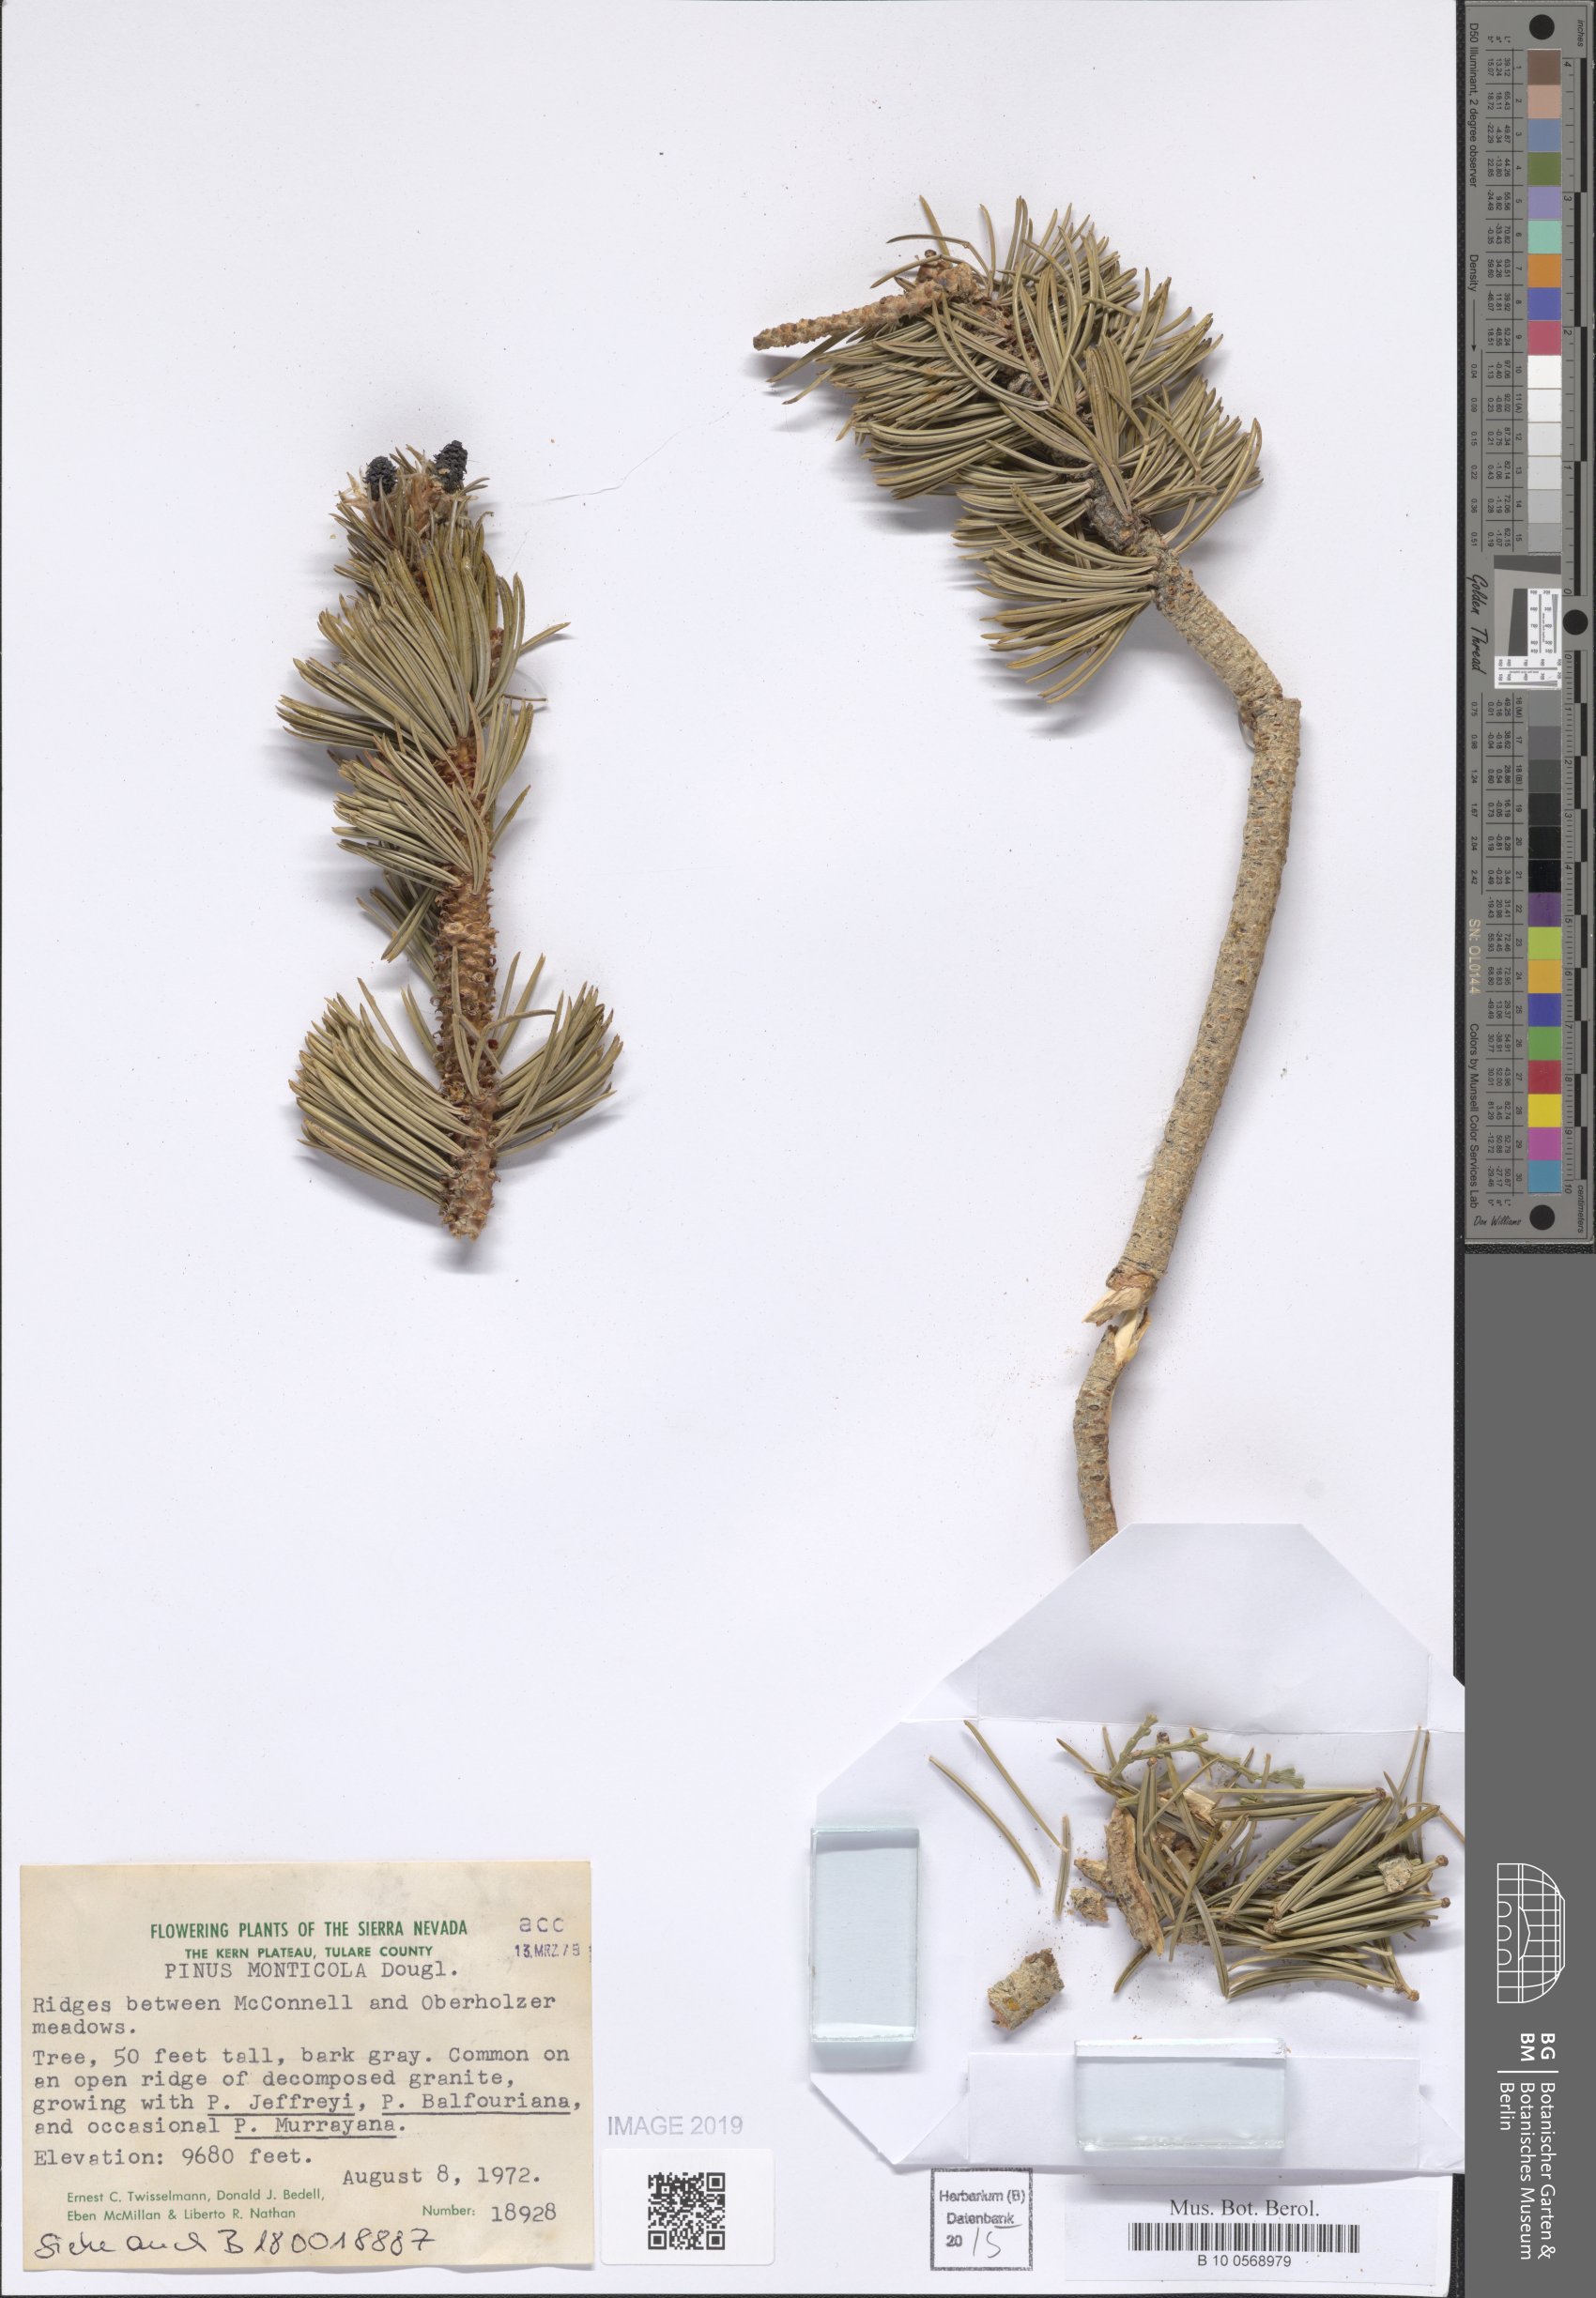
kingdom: Plantae
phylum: Tracheophyta
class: Pinopsida
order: Pinales
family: Pinaceae
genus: Pinus
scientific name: Pinus monticola
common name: Western white pine
